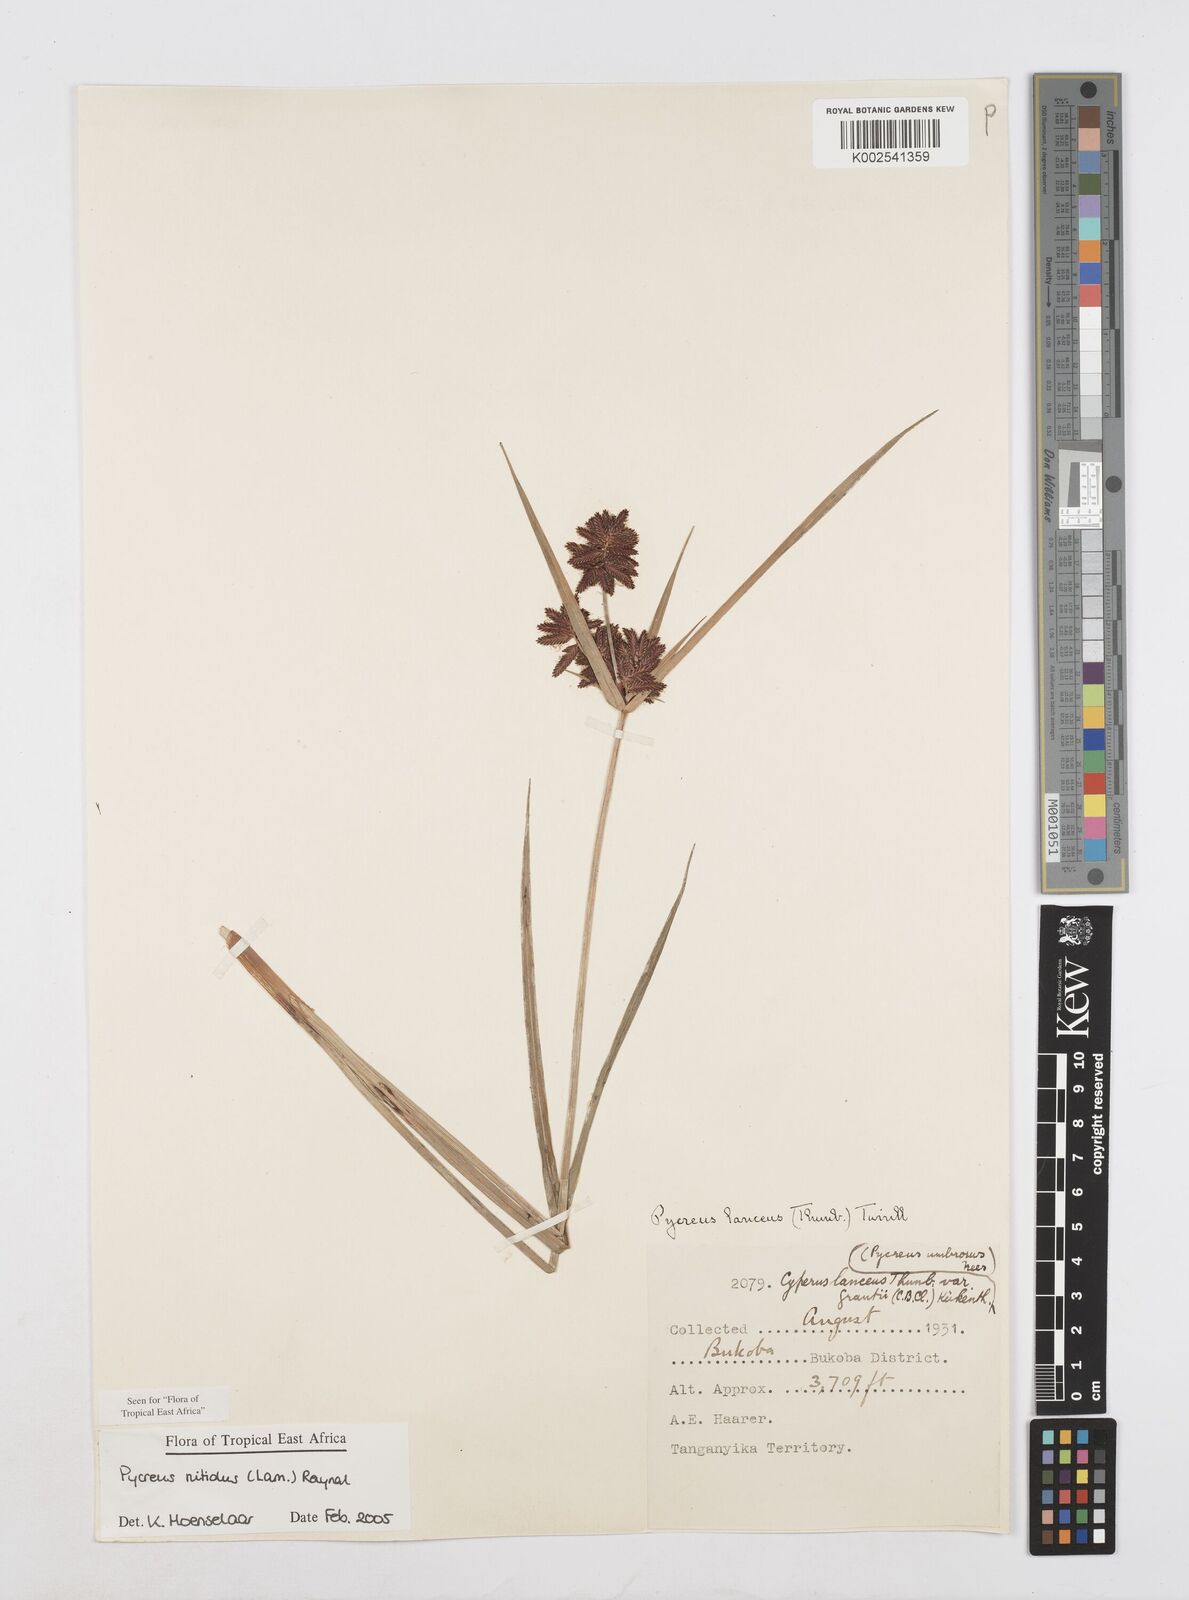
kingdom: Plantae
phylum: Tracheophyta
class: Liliopsida
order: Poales
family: Cyperaceae
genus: Cyperus
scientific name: Cyperus nitidus
